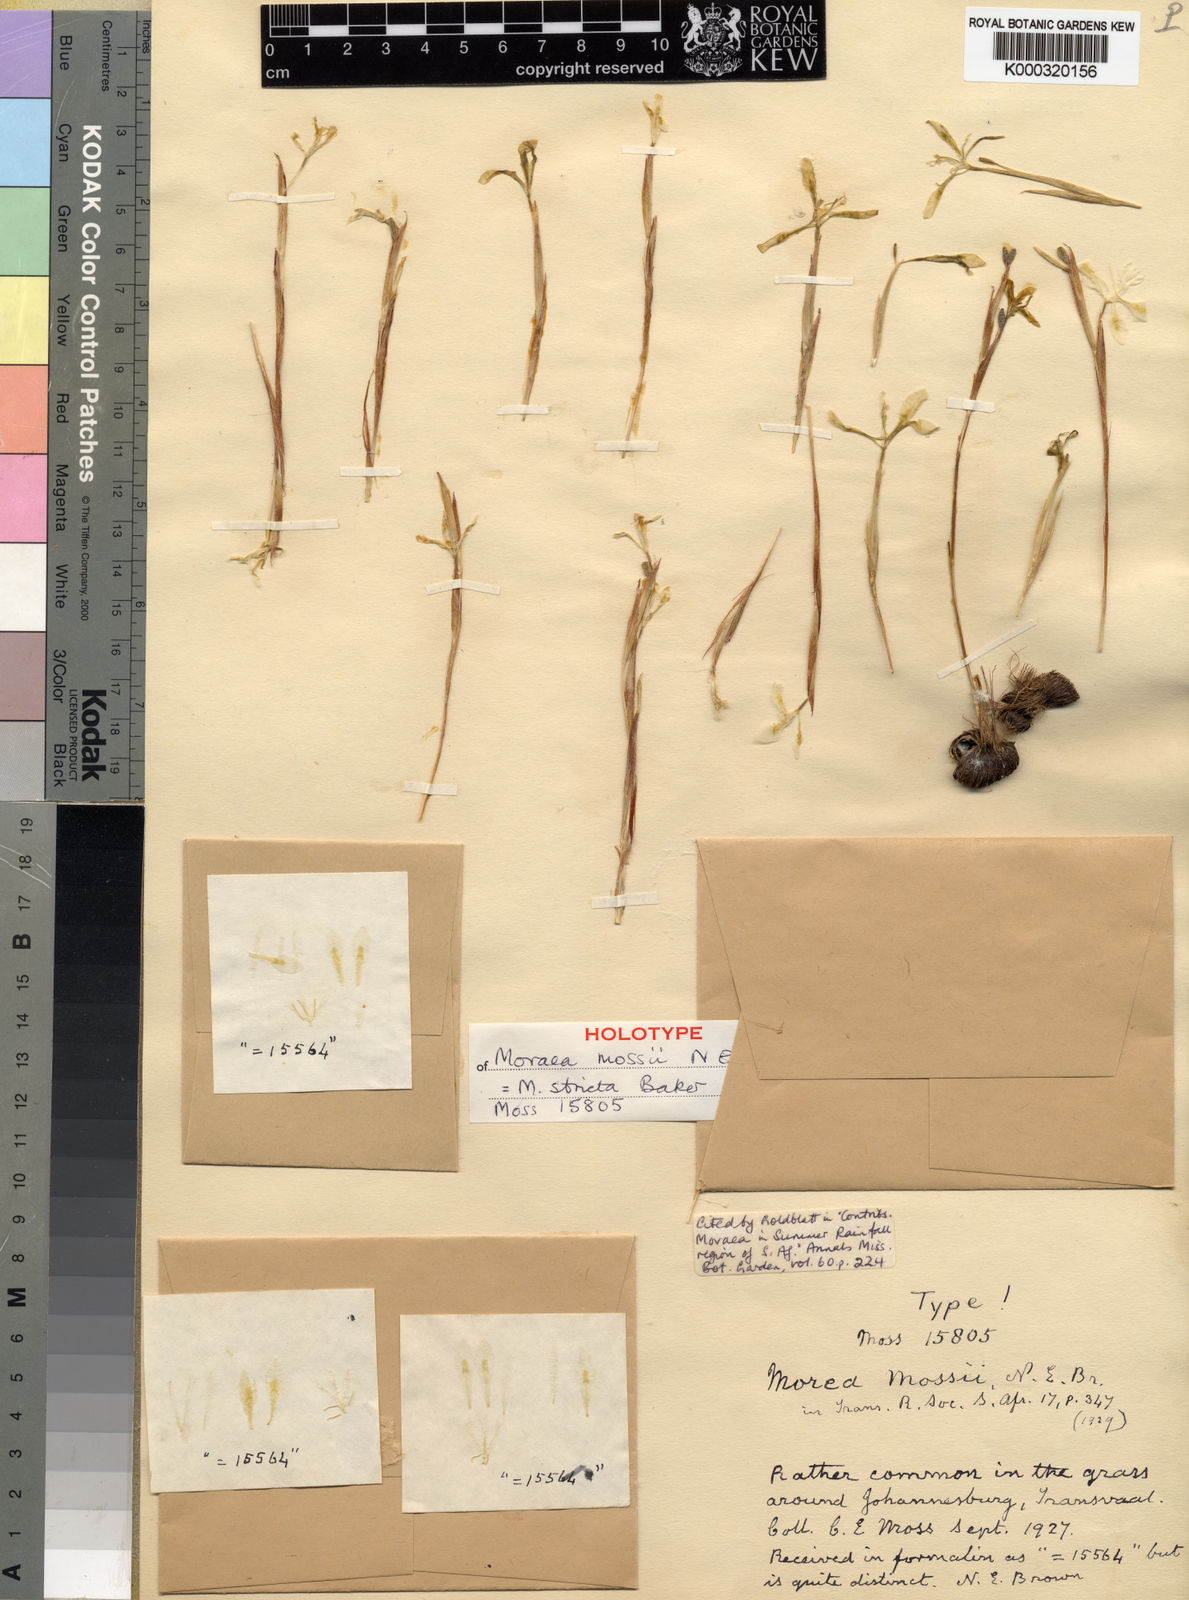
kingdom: Plantae
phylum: Tracheophyta
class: Liliopsida
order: Asparagales
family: Iridaceae
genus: Moraea
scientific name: Moraea stricta
